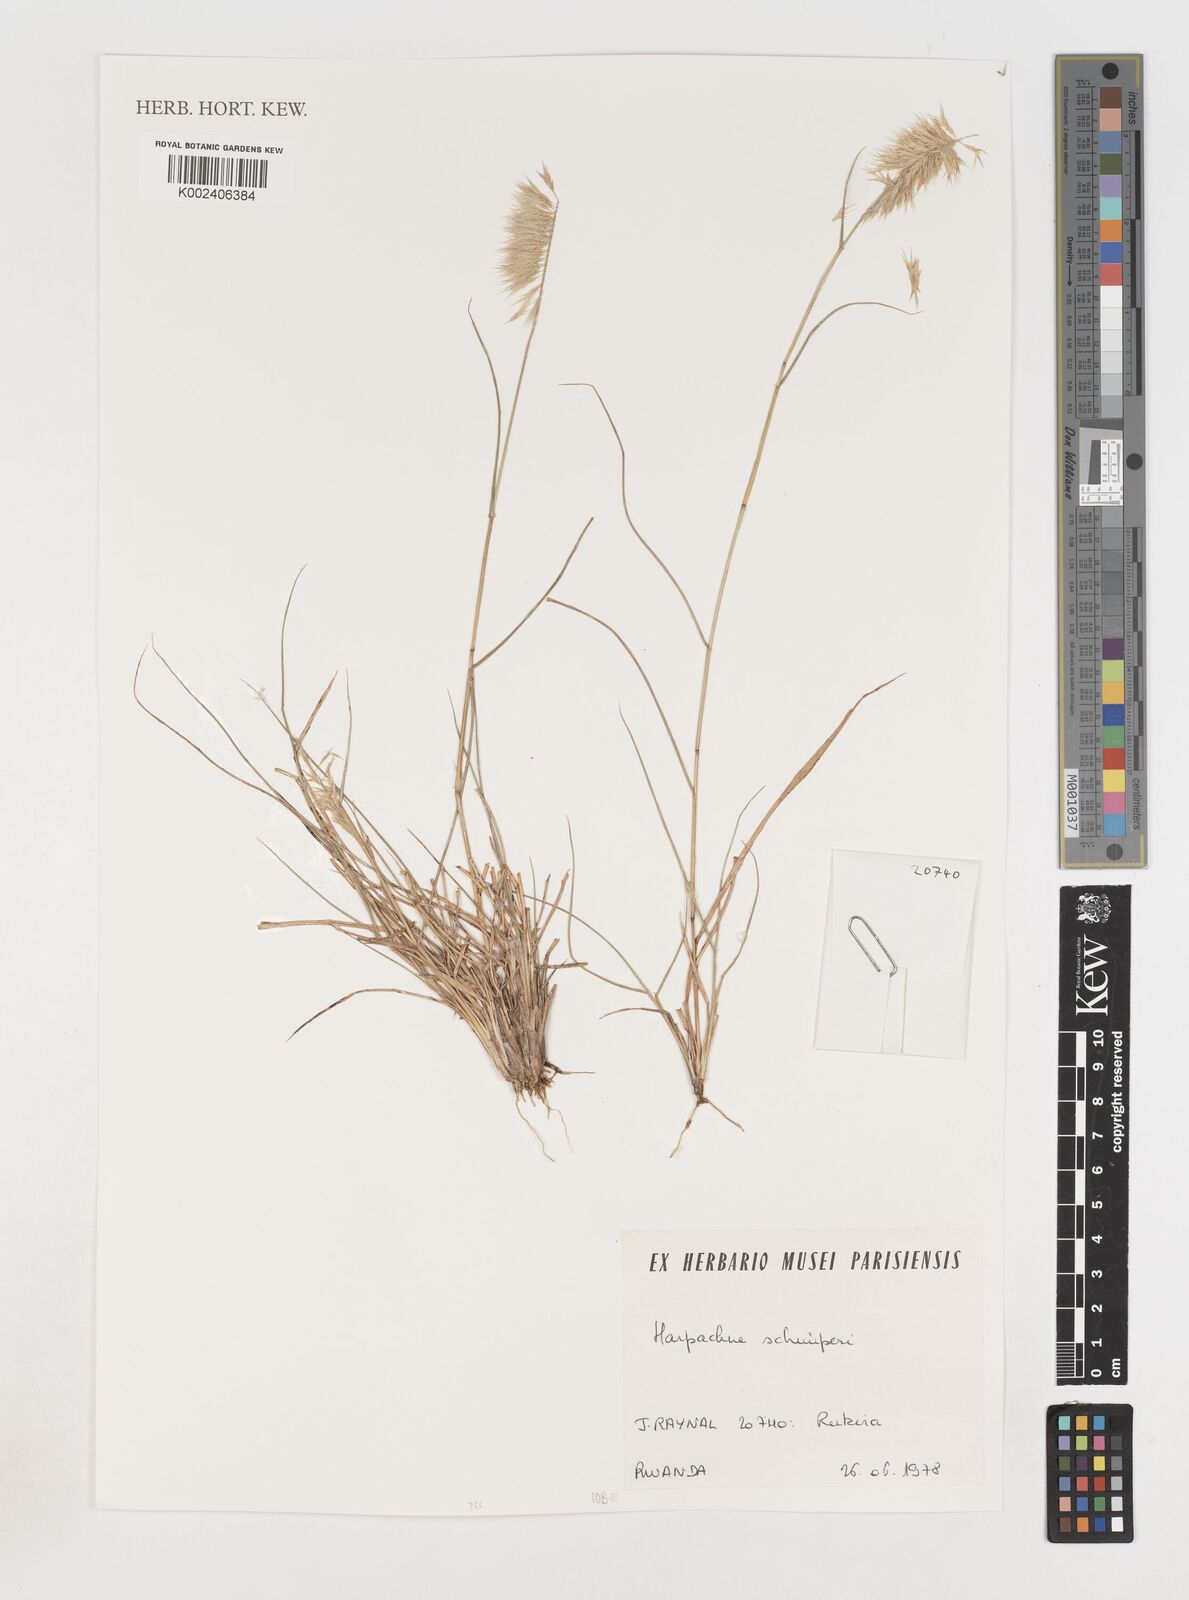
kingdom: Plantae
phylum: Tracheophyta
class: Liliopsida
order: Poales
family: Poaceae
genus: Harpachne
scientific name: Harpachne schimperi
